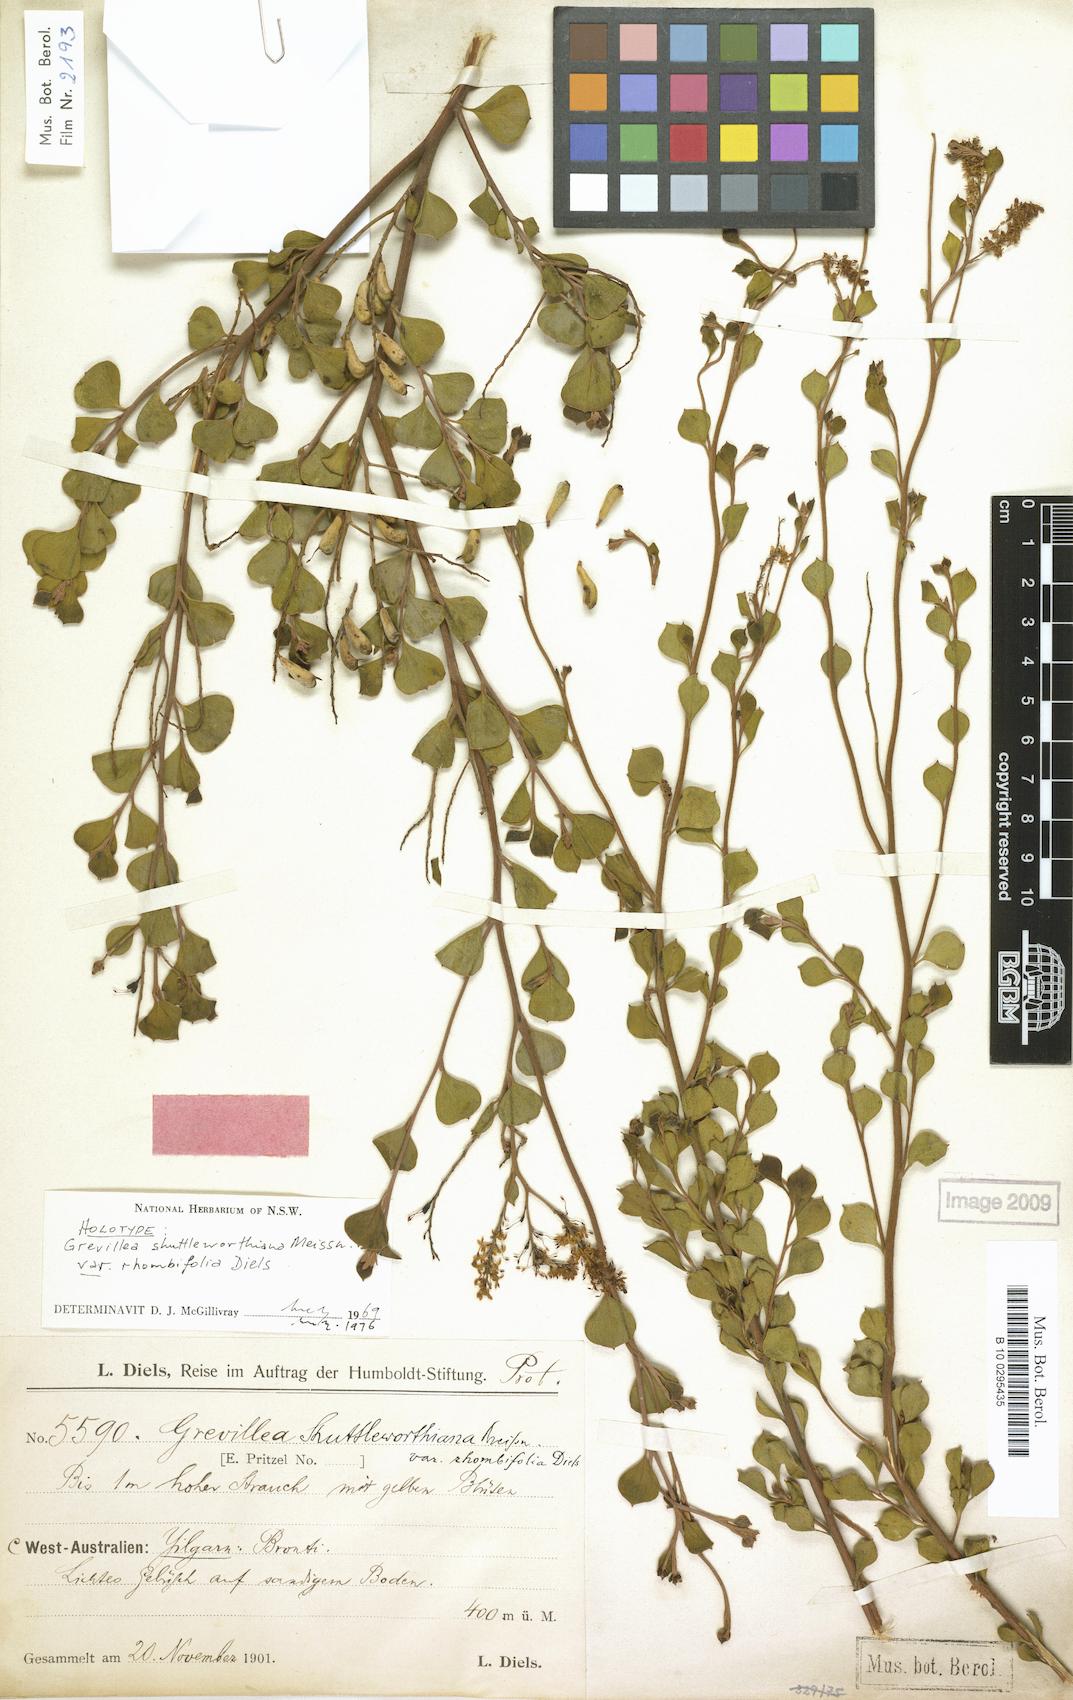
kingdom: Plantae
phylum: Tracheophyta
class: Magnoliopsida
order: Proteales
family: Proteaceae
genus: Grevillea
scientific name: Grevillea shuttleworthiana
